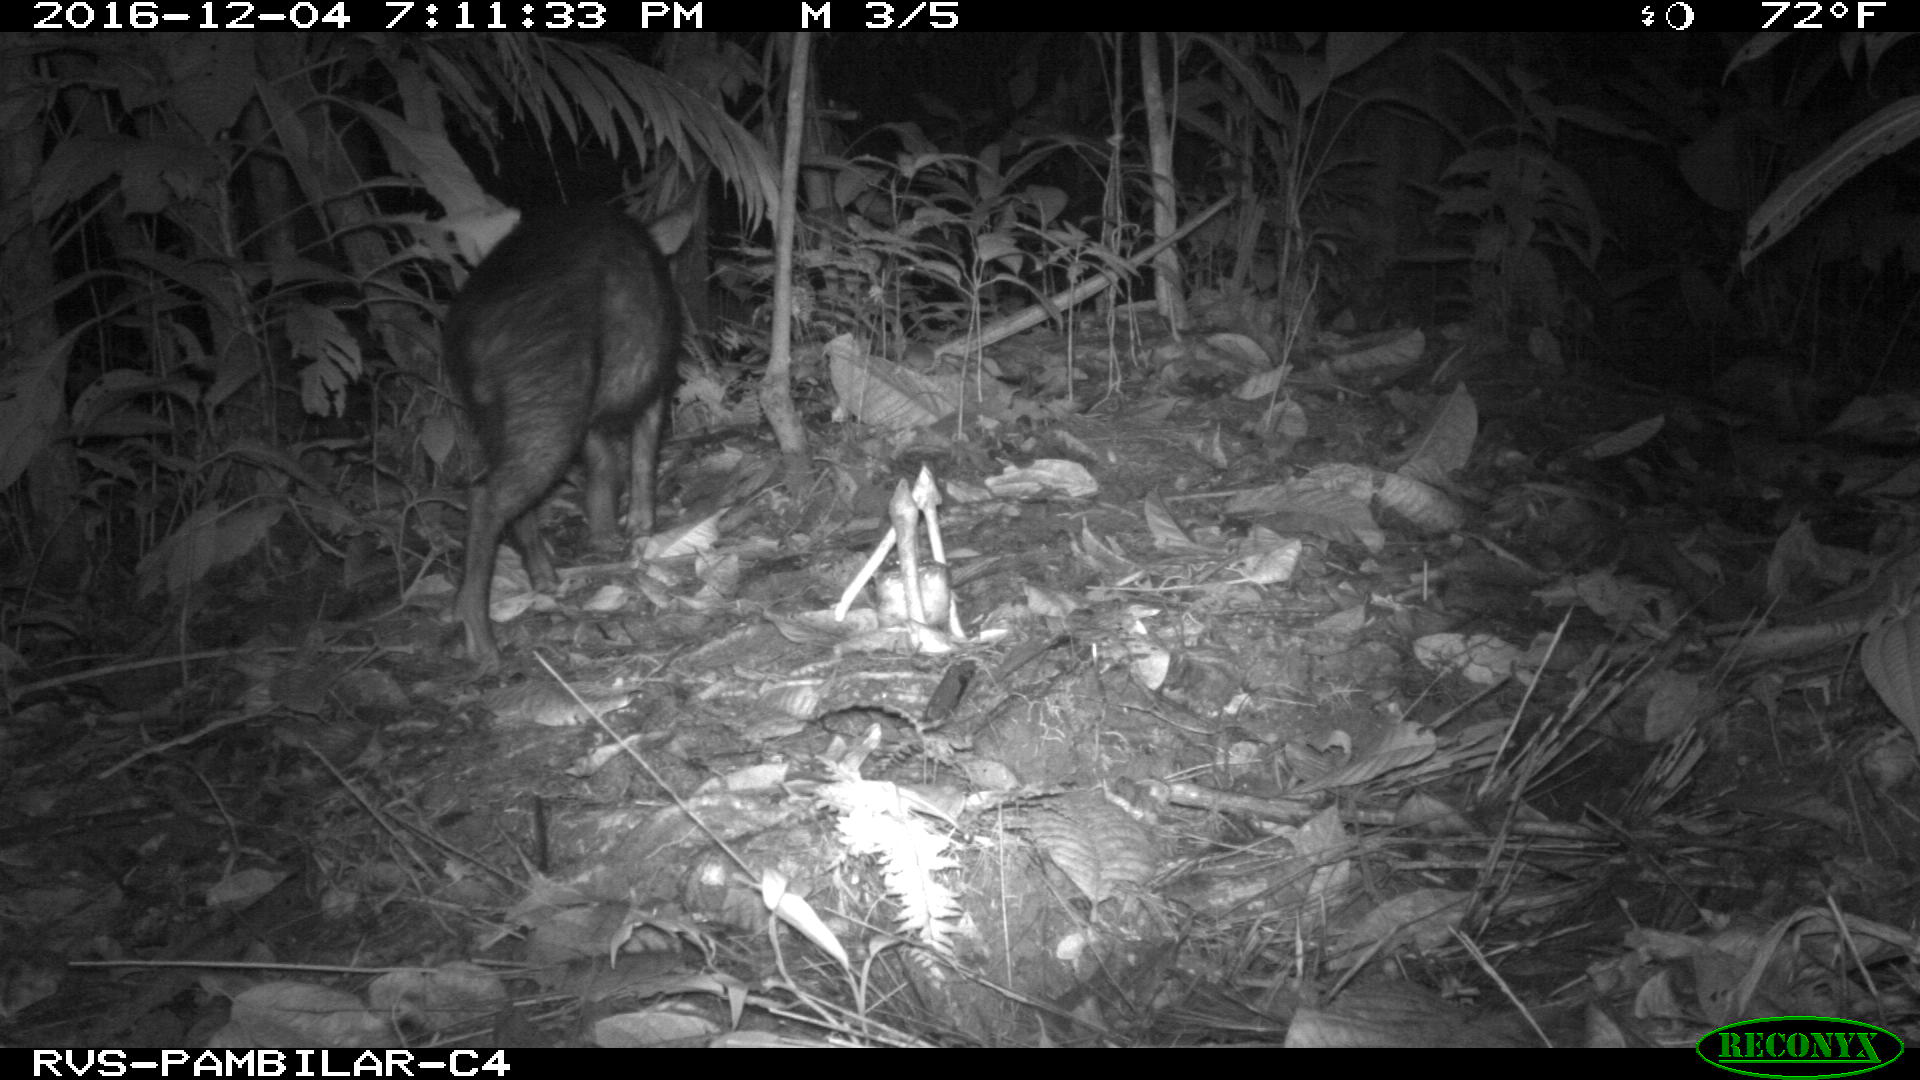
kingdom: Animalia
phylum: Chordata
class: Mammalia
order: Artiodactyla
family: Tayassuidae
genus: Pecari
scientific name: Pecari tajacu
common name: Collared peccary
